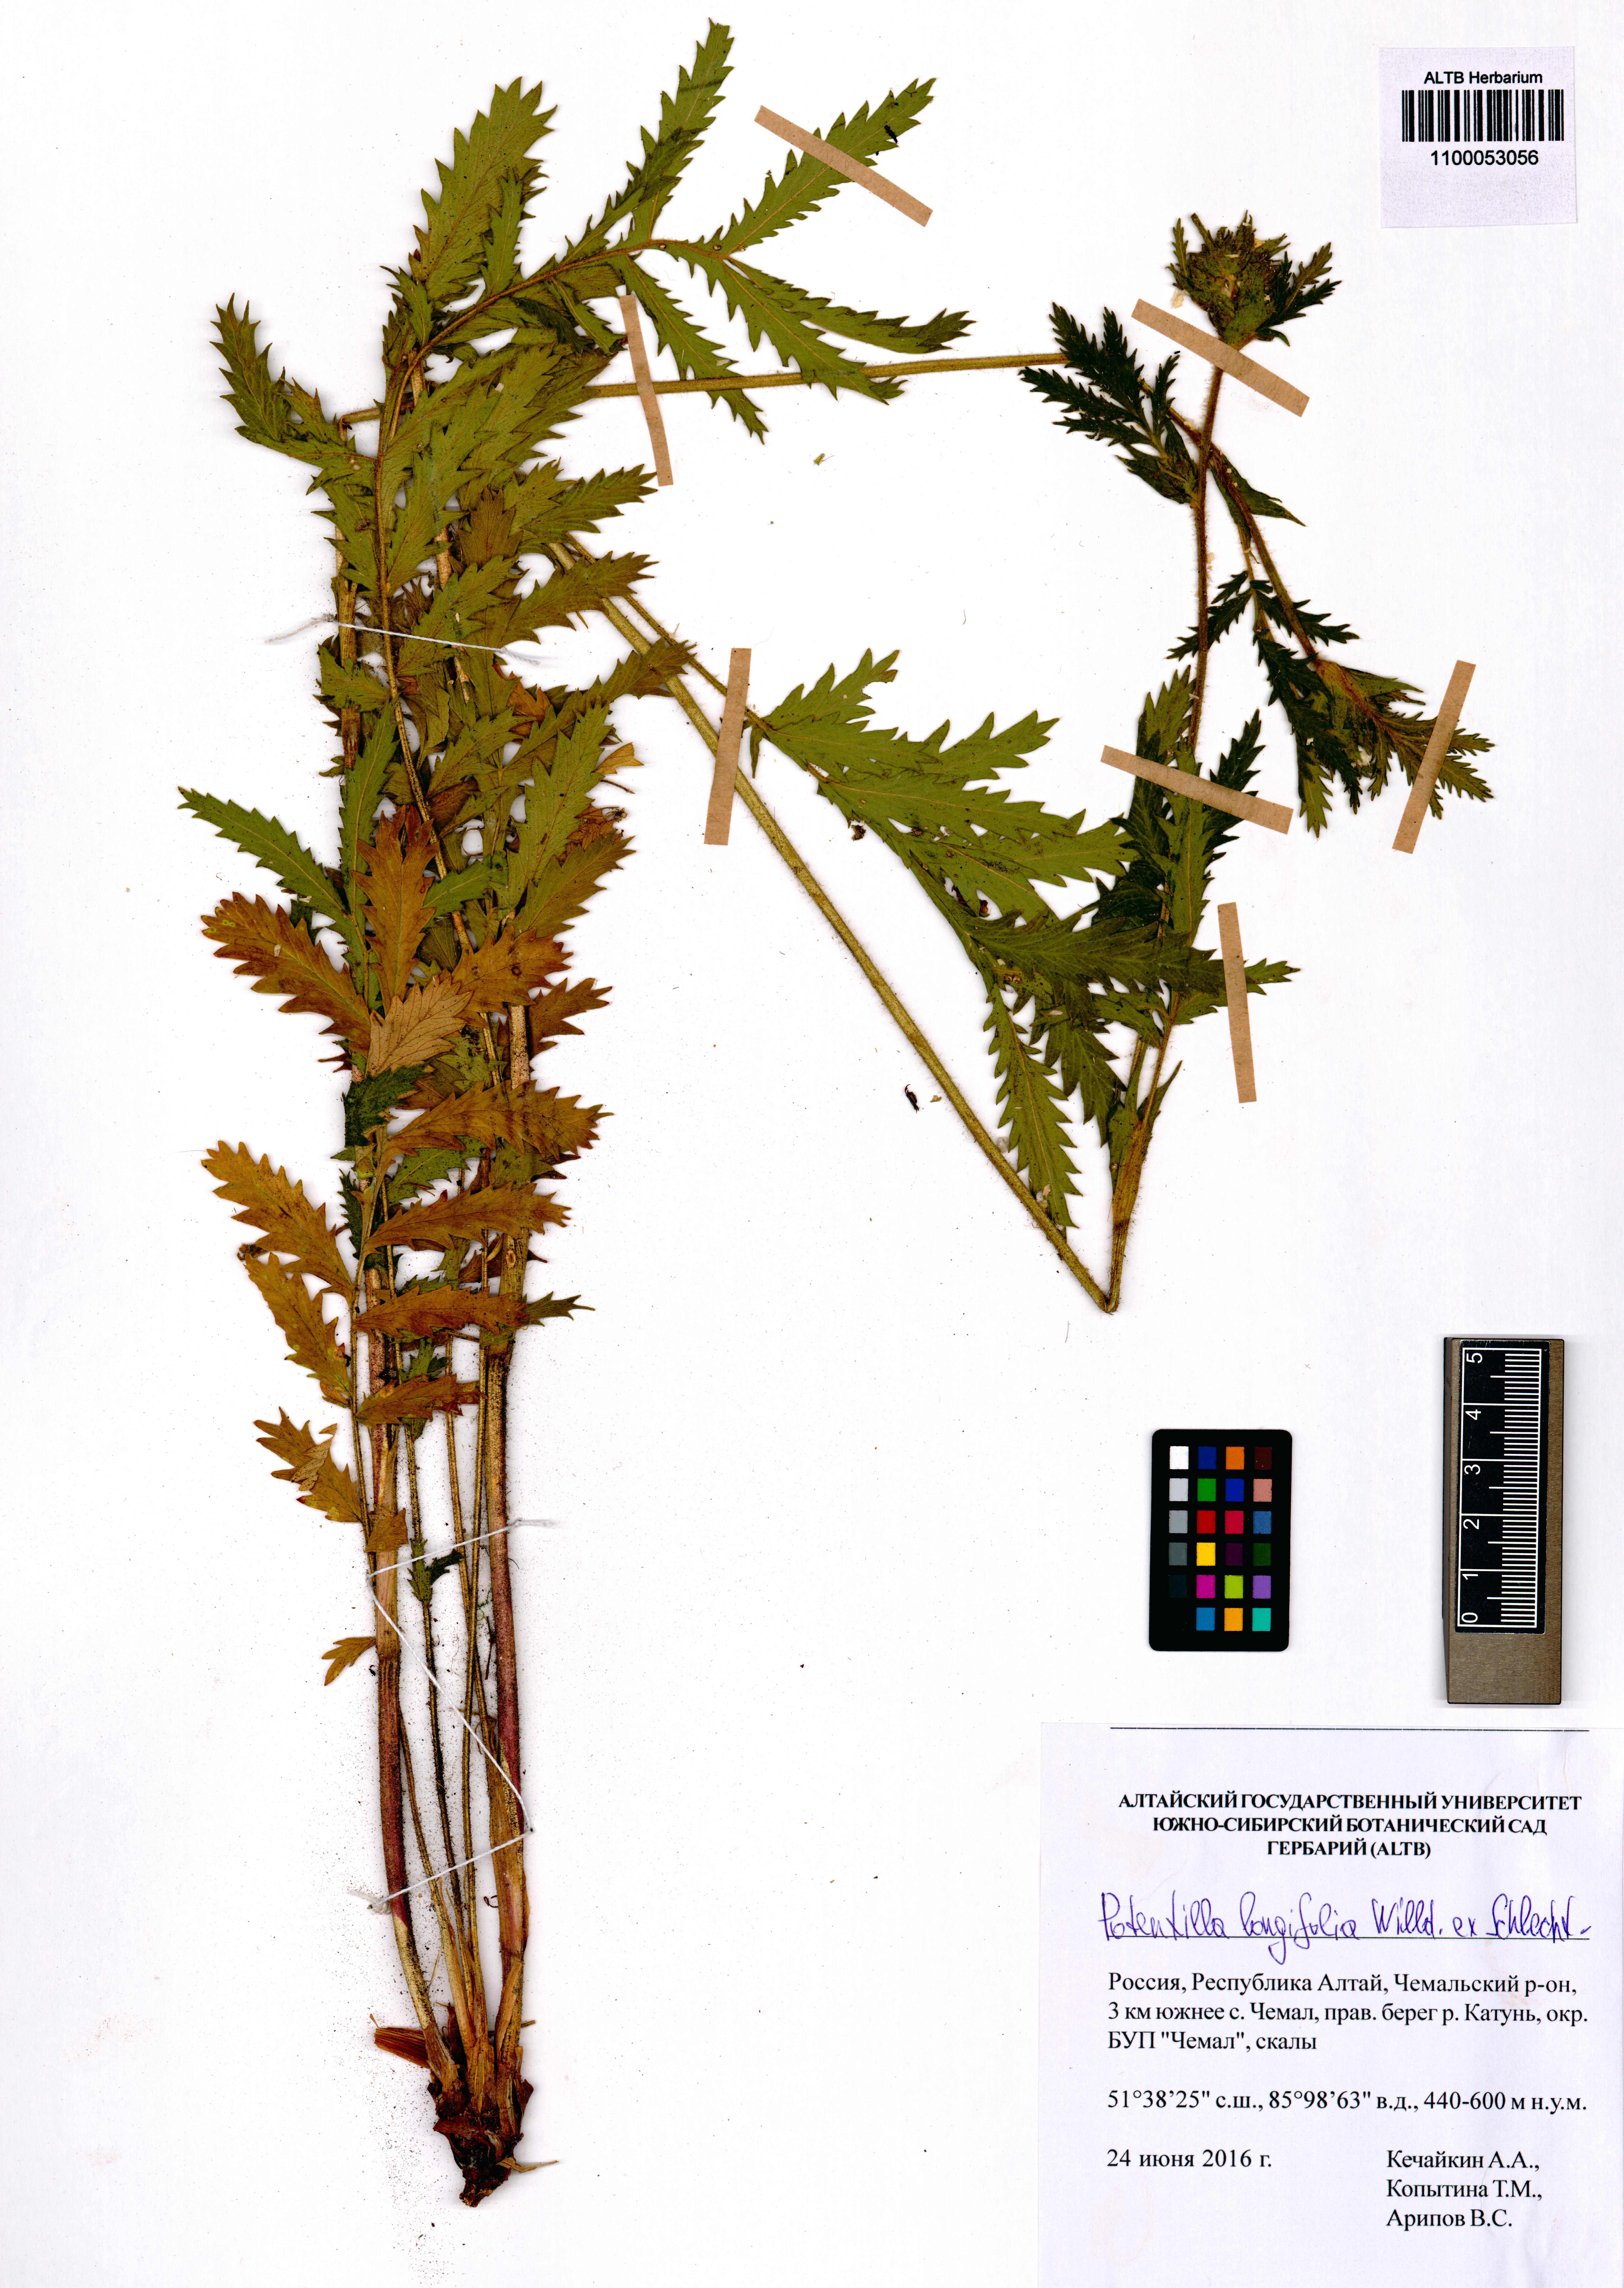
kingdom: Plantae
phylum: Tracheophyta
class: Magnoliopsida
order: Rosales
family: Rosaceae
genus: Potentilla
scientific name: Potentilla longifolia
